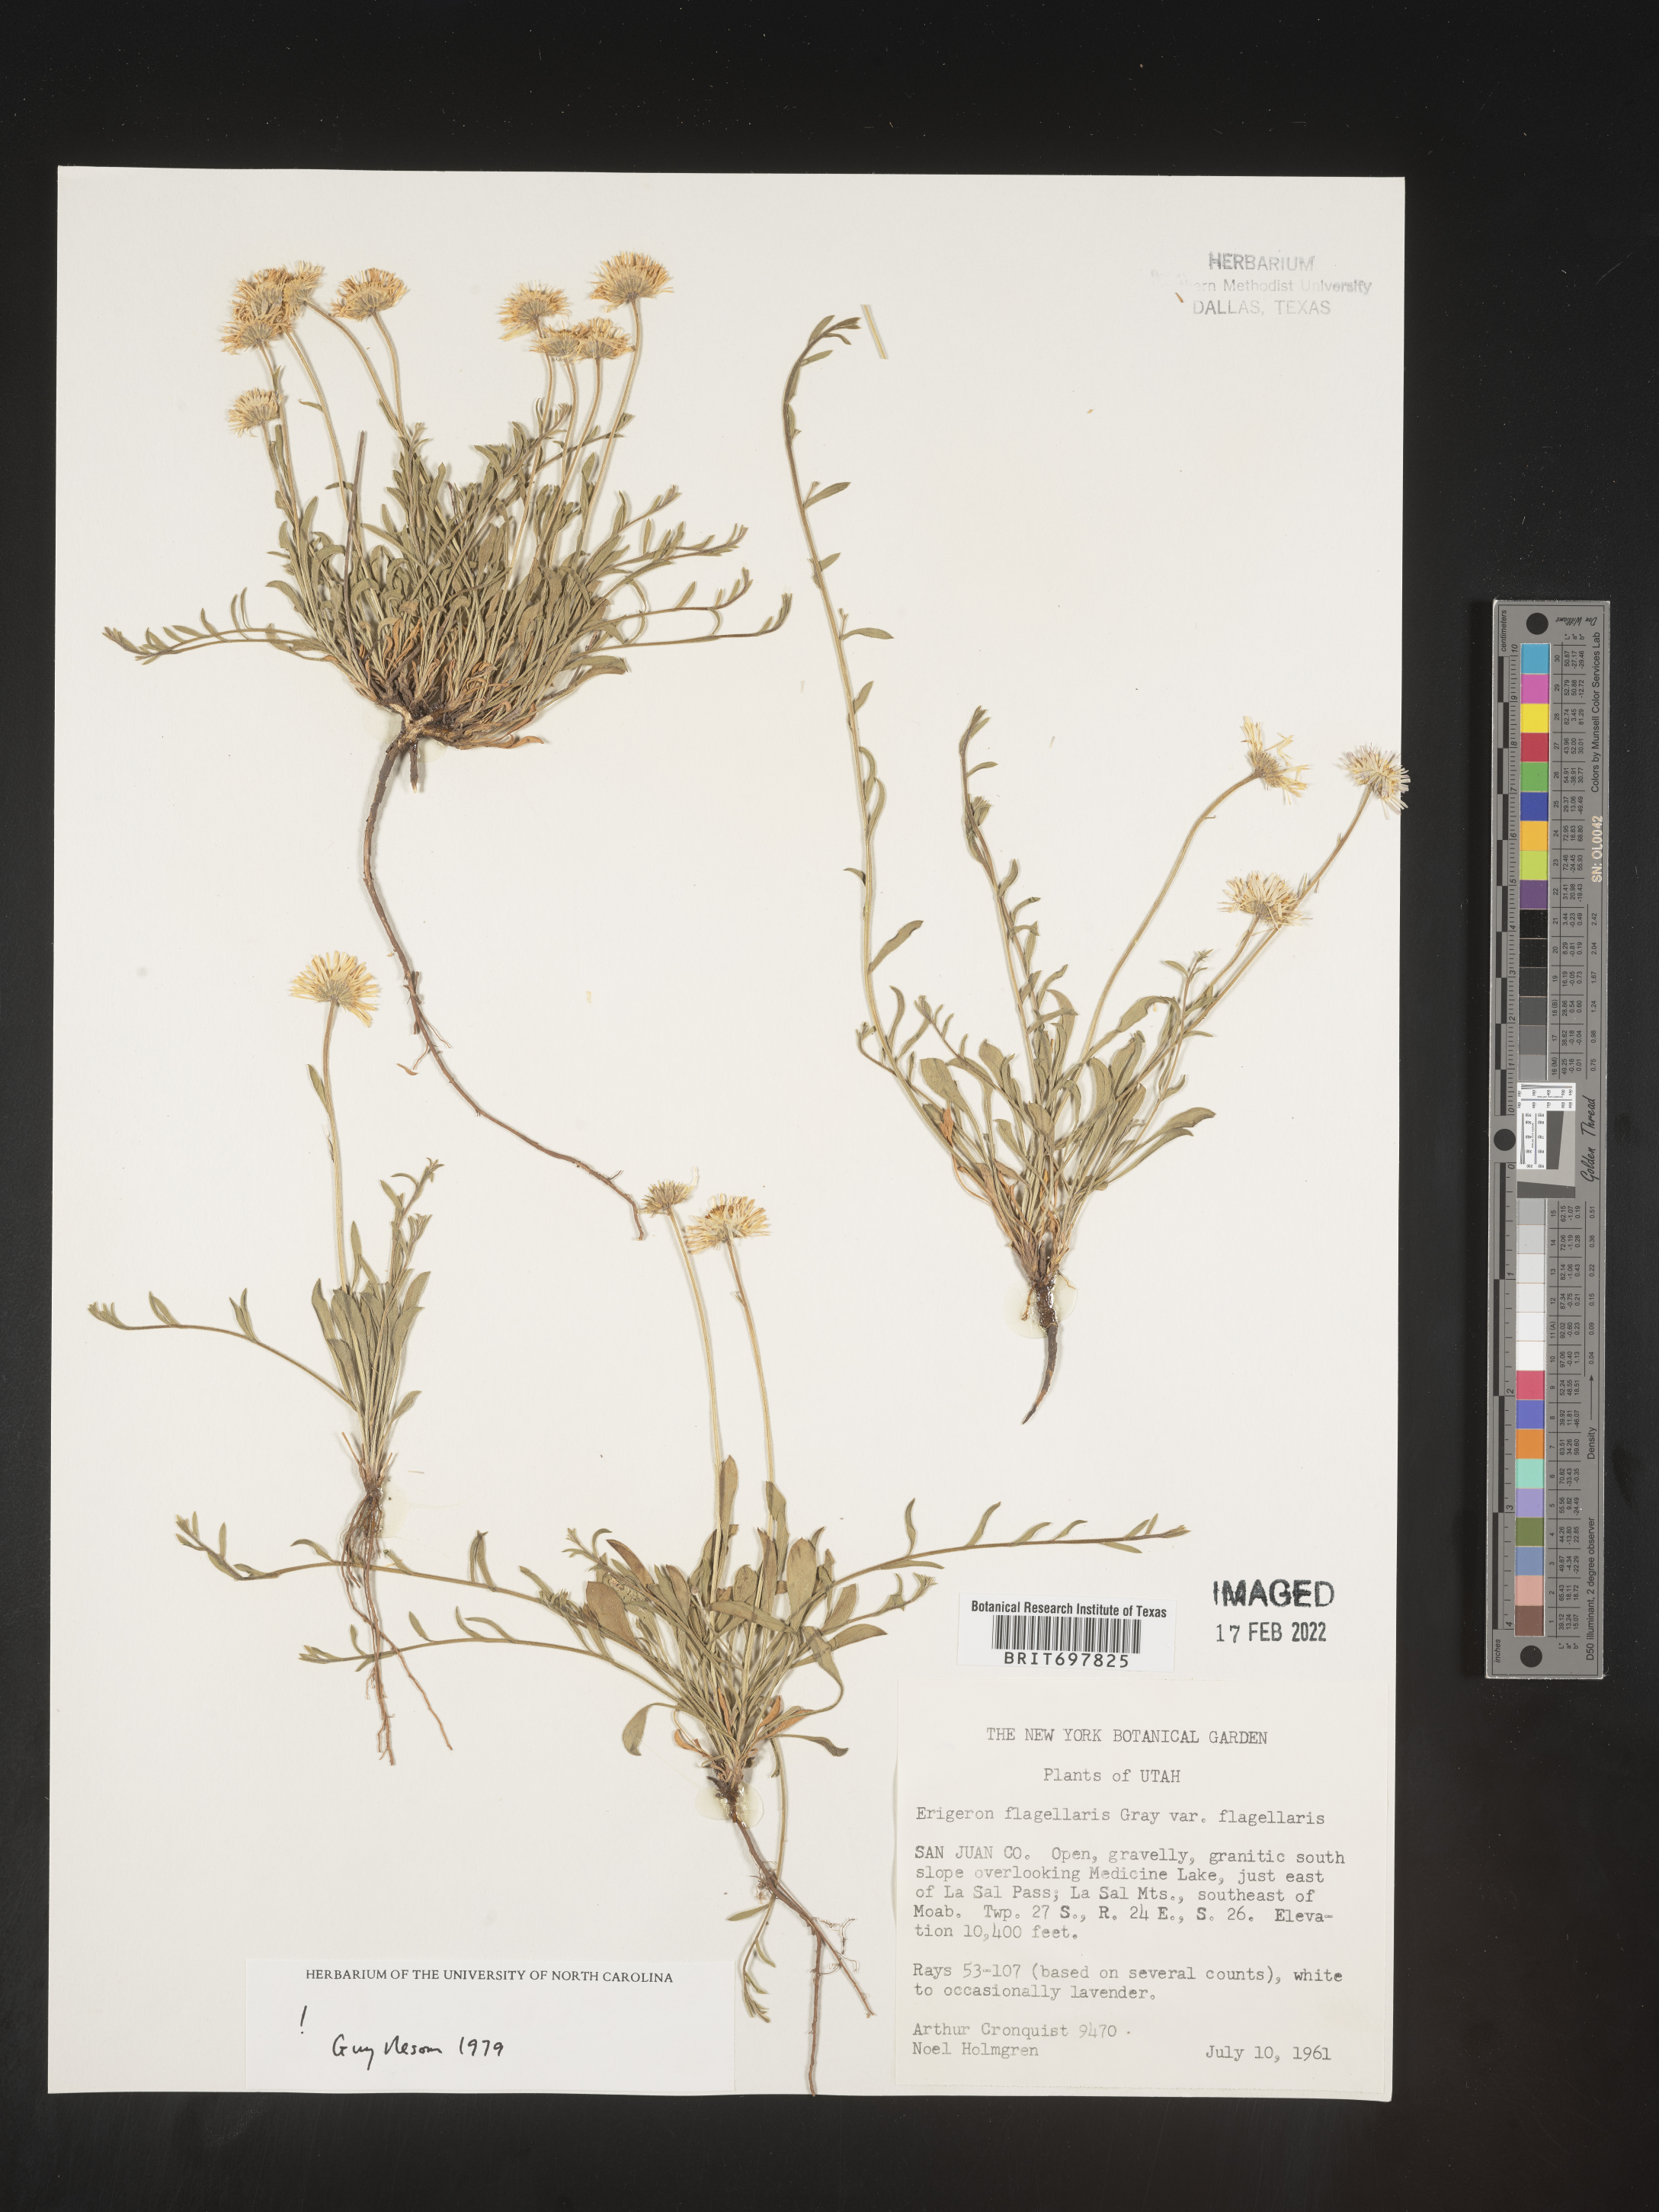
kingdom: Plantae
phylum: Tracheophyta
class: Magnoliopsida
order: Asterales
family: Asteraceae
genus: Erigeron
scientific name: Erigeron flagellaris
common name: Running fleabane
